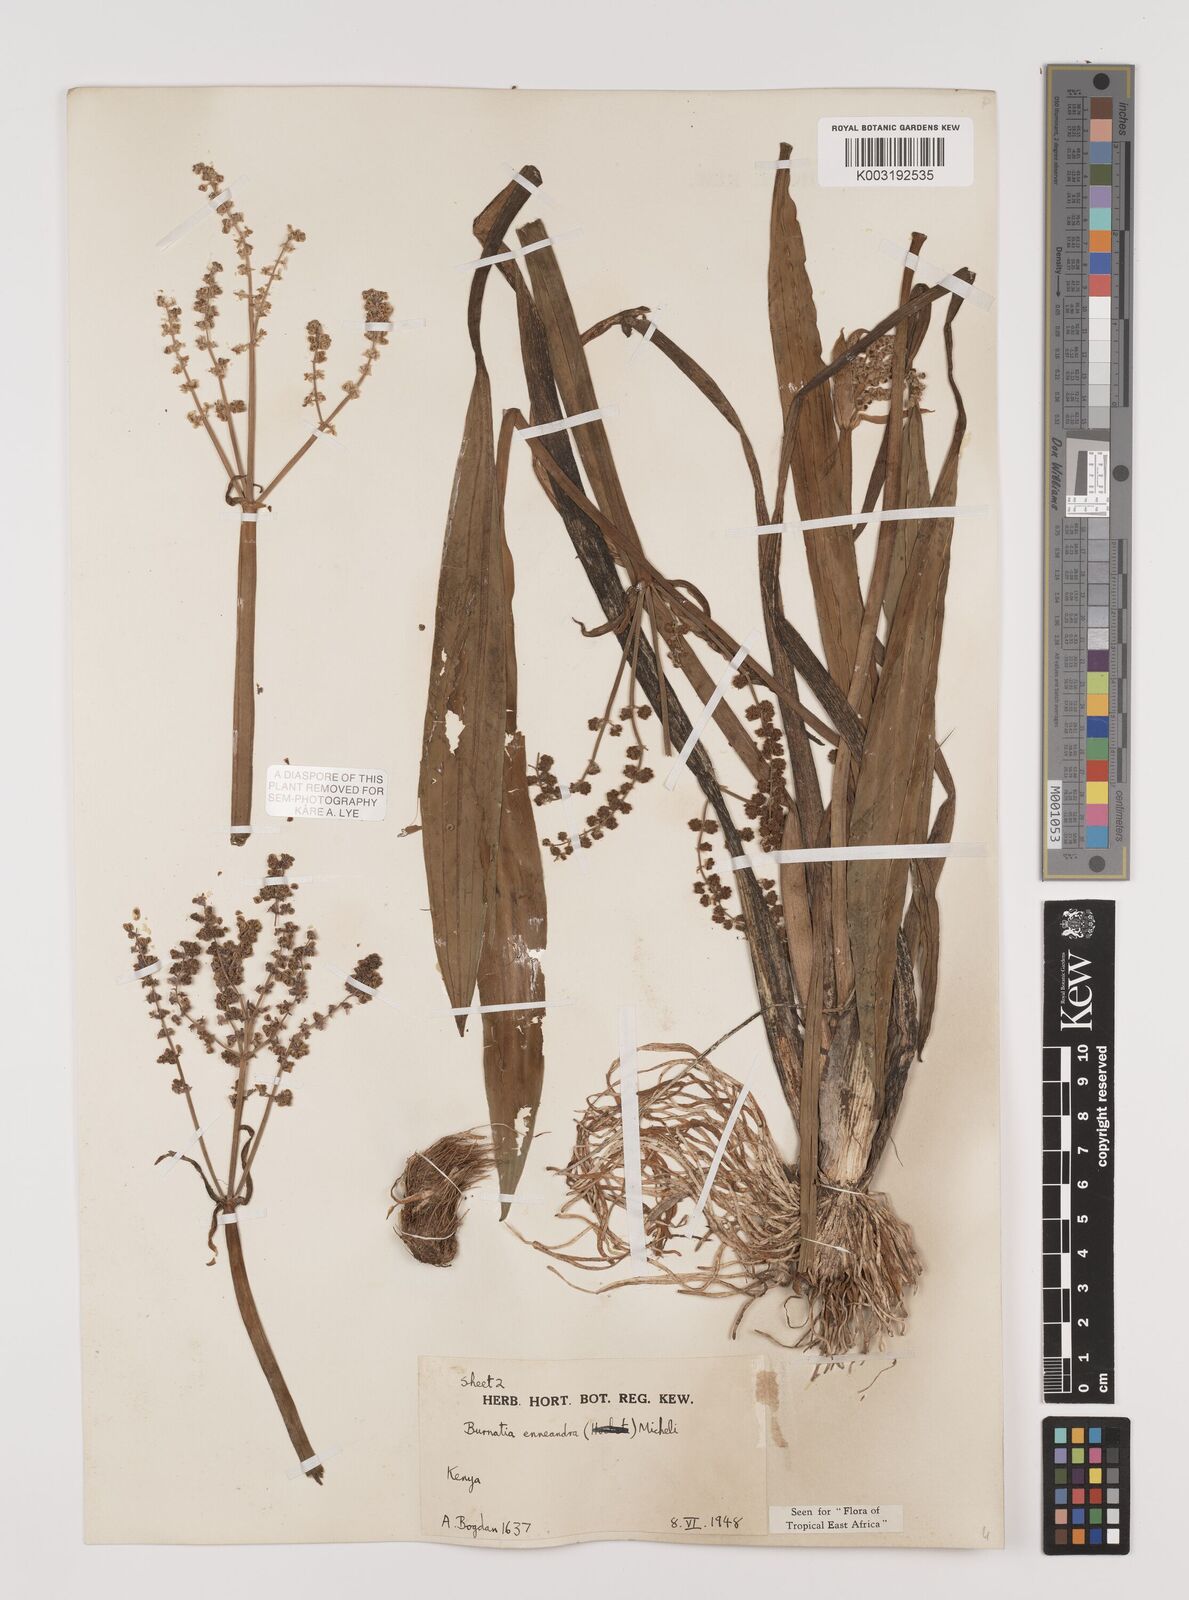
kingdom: Plantae
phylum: Tracheophyta
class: Liliopsida
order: Alismatales
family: Alismataceae
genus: Burnatia
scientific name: Burnatia enneandra
